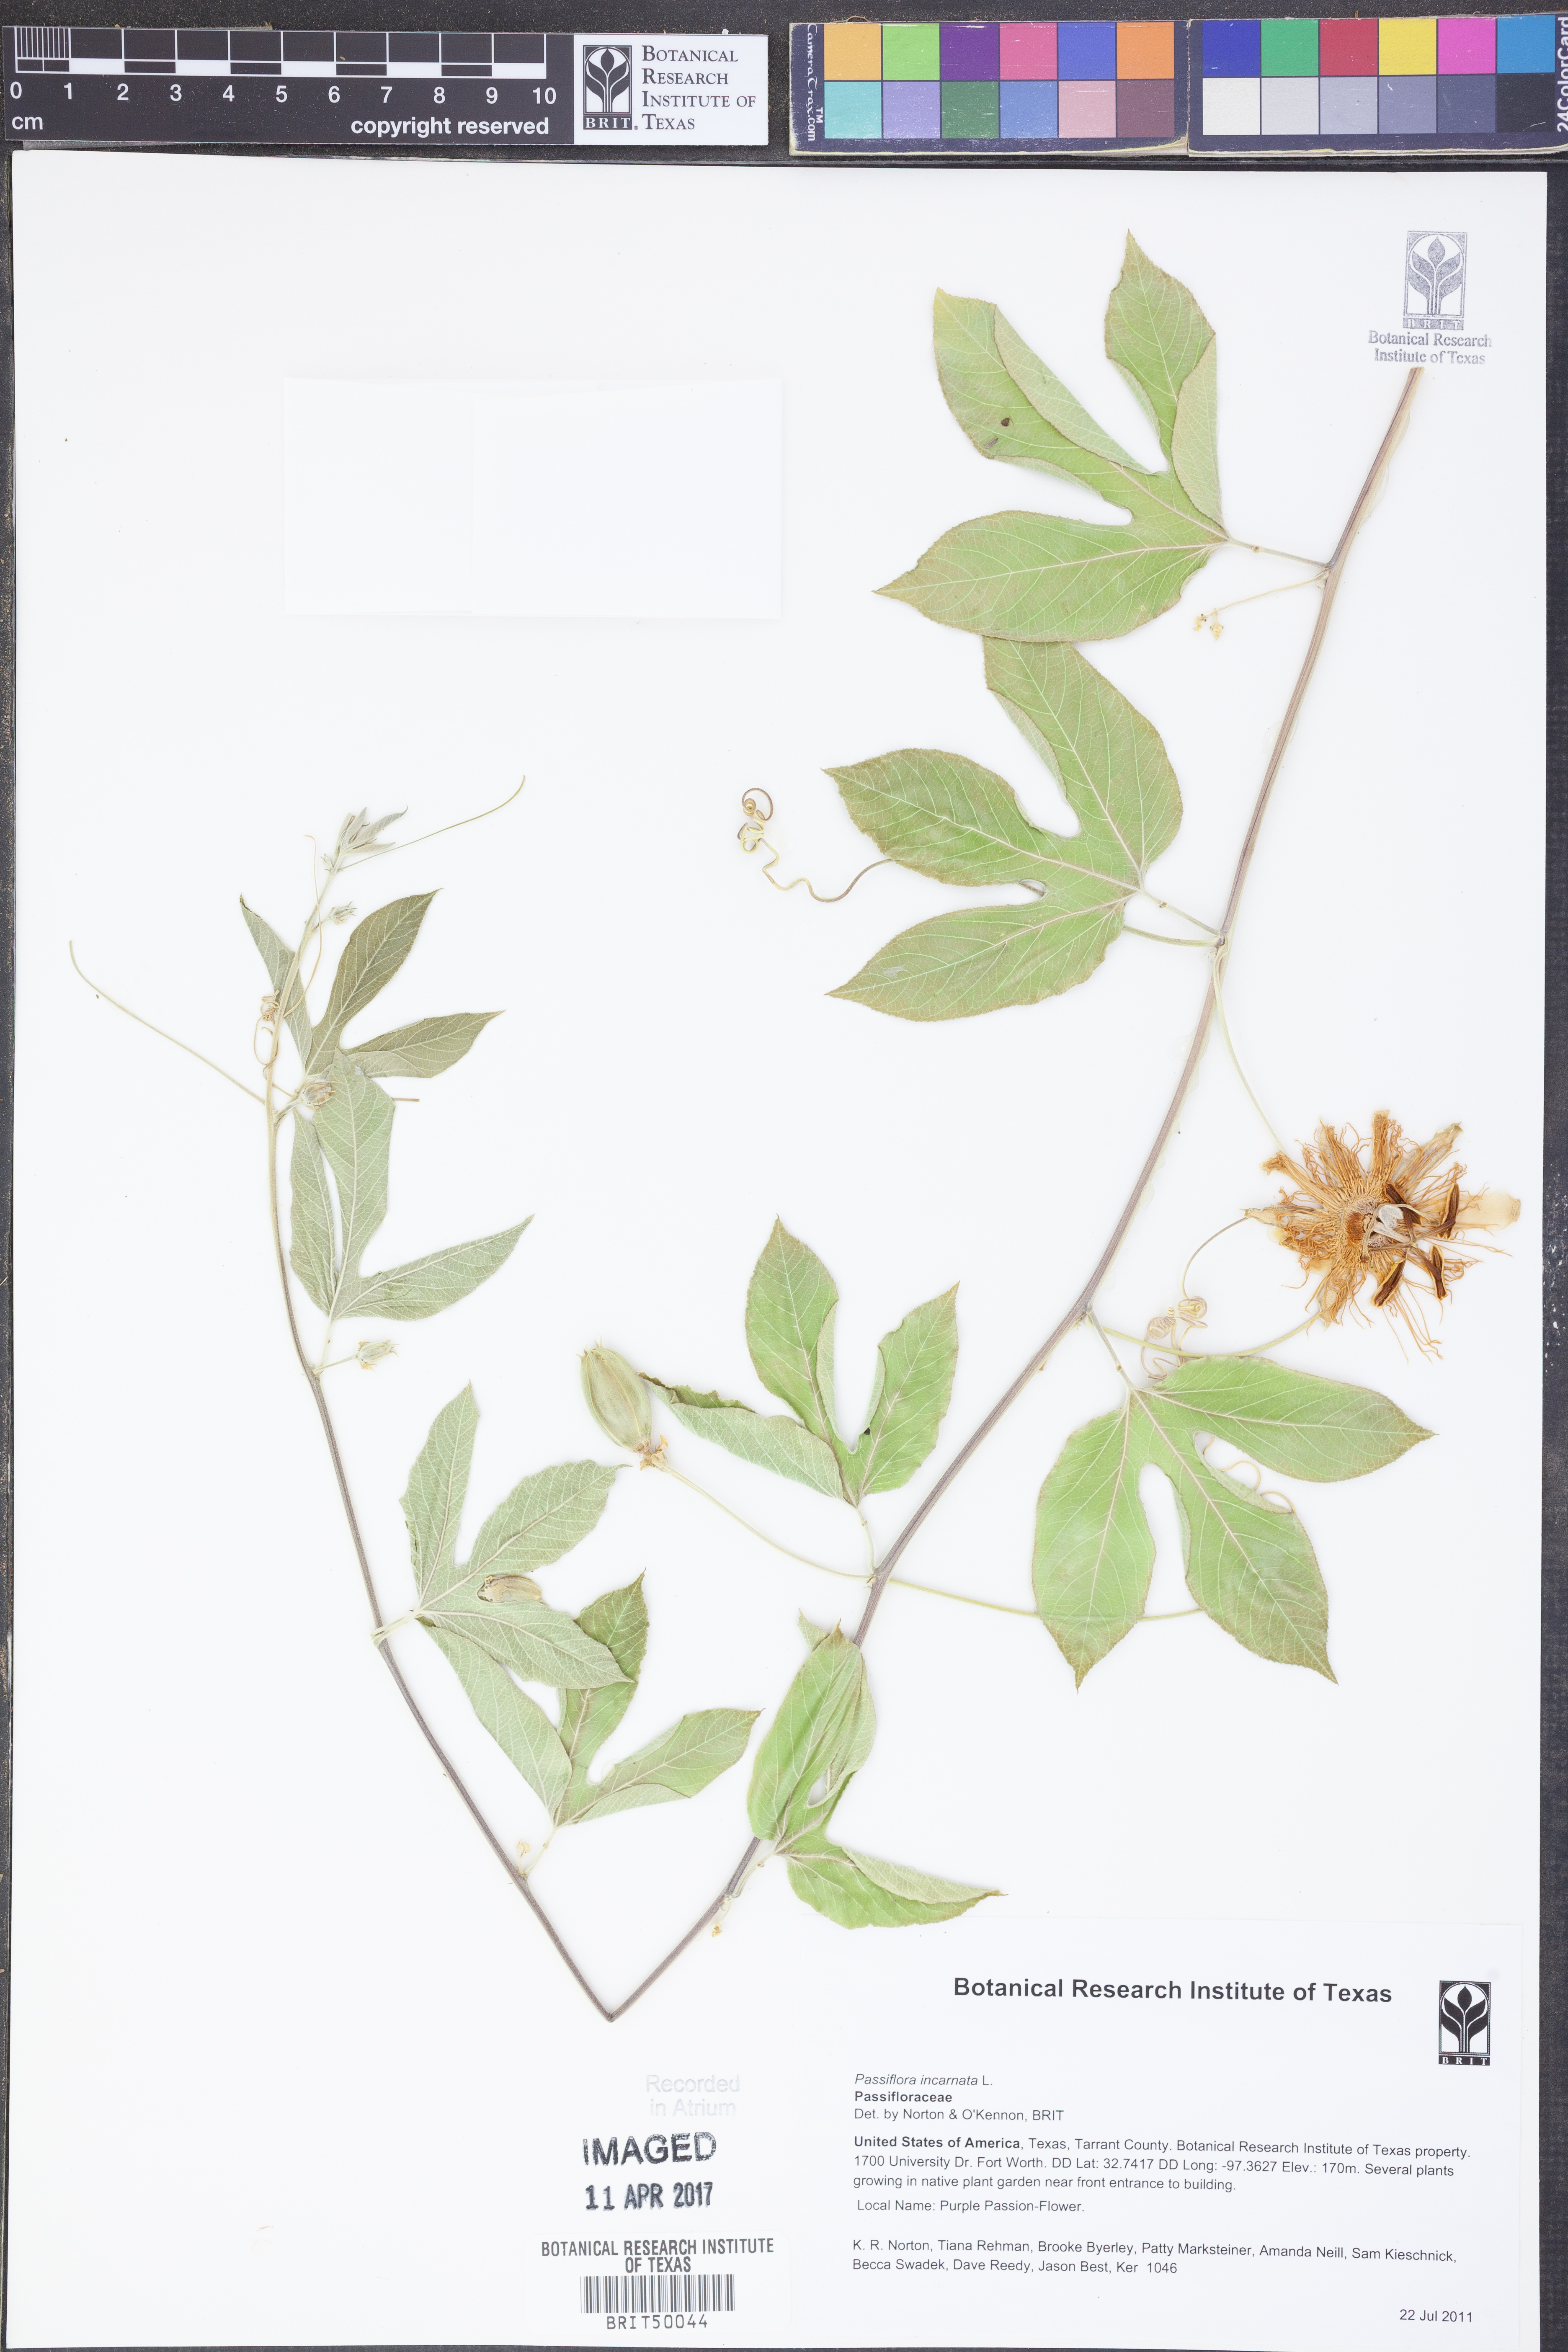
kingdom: Plantae
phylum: Tracheophyta
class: Magnoliopsida
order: Malpighiales
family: Passifloraceae
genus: Passiflora
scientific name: Passiflora incarnata
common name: Apricot-vine
